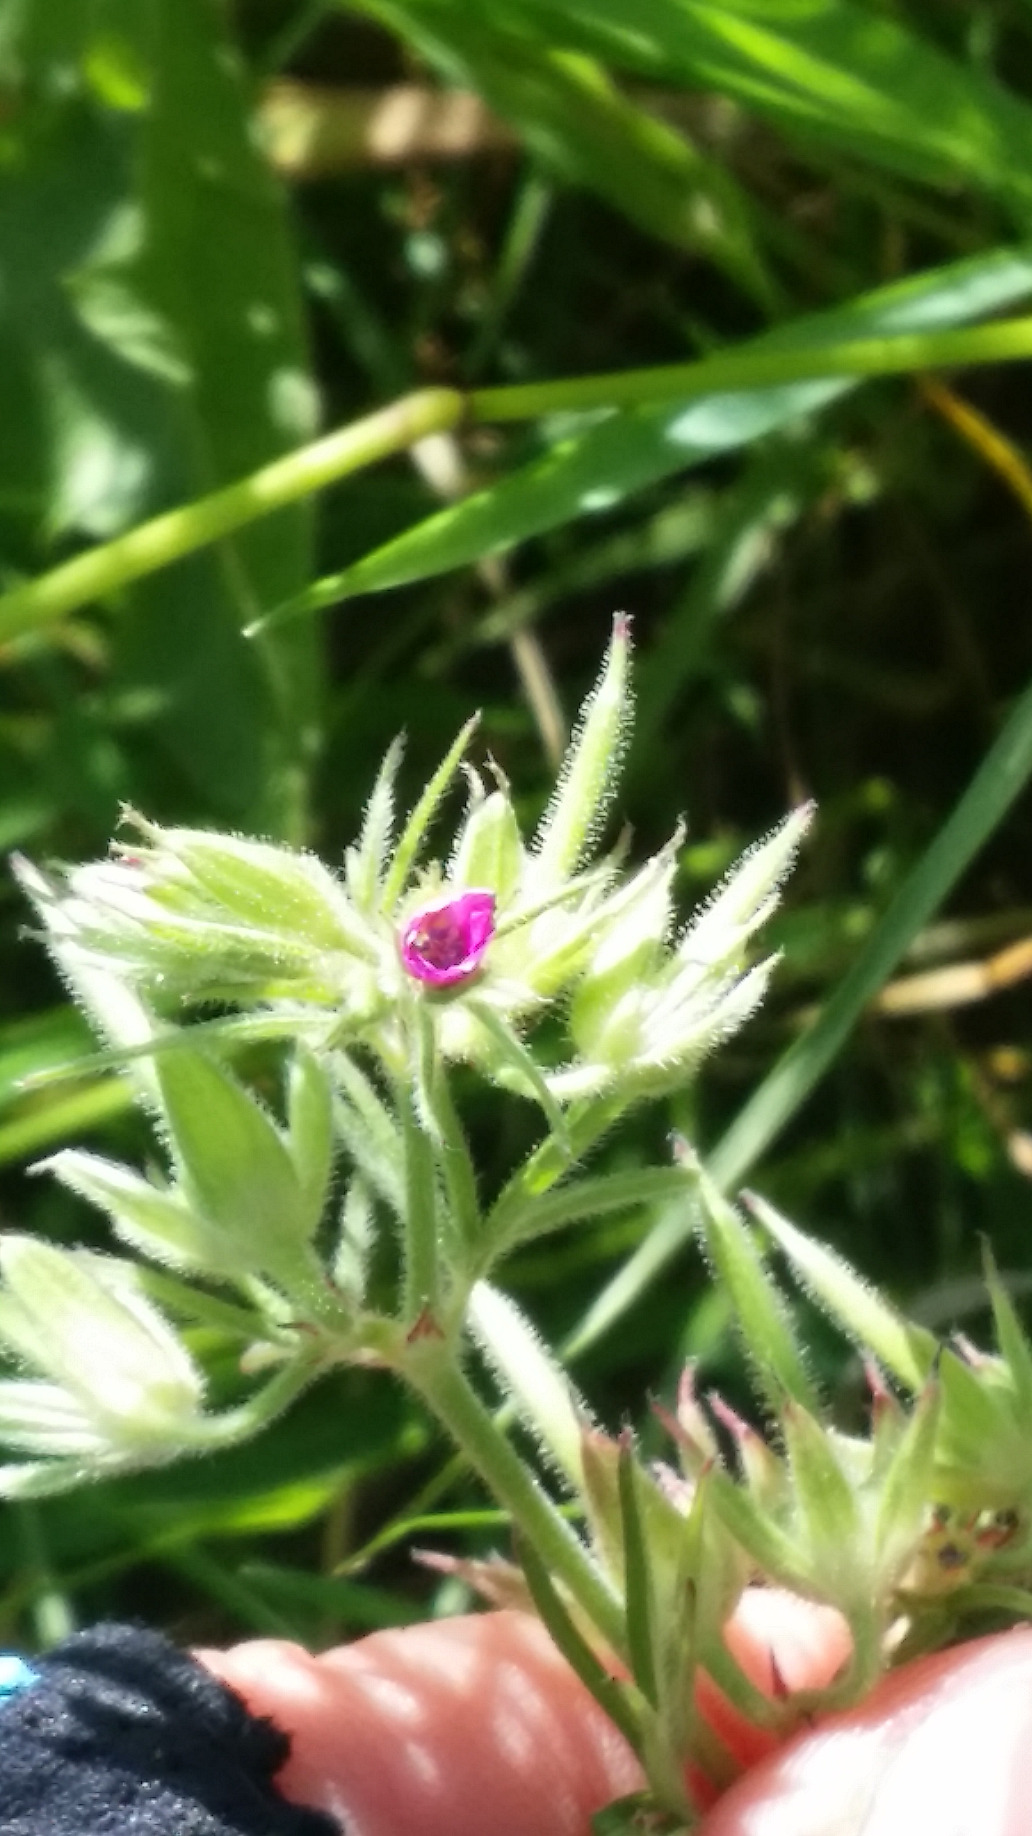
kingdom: Plantae
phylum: Tracheophyta
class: Magnoliopsida
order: Geraniales
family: Geraniaceae
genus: Geranium
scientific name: Geranium dissectum
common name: Kløftet storkenæb
